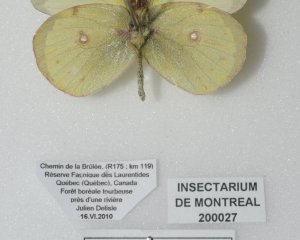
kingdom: Animalia
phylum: Arthropoda
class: Insecta
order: Lepidoptera
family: Pieridae
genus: Colias
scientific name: Colias philodice
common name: Clouded Sulphur
